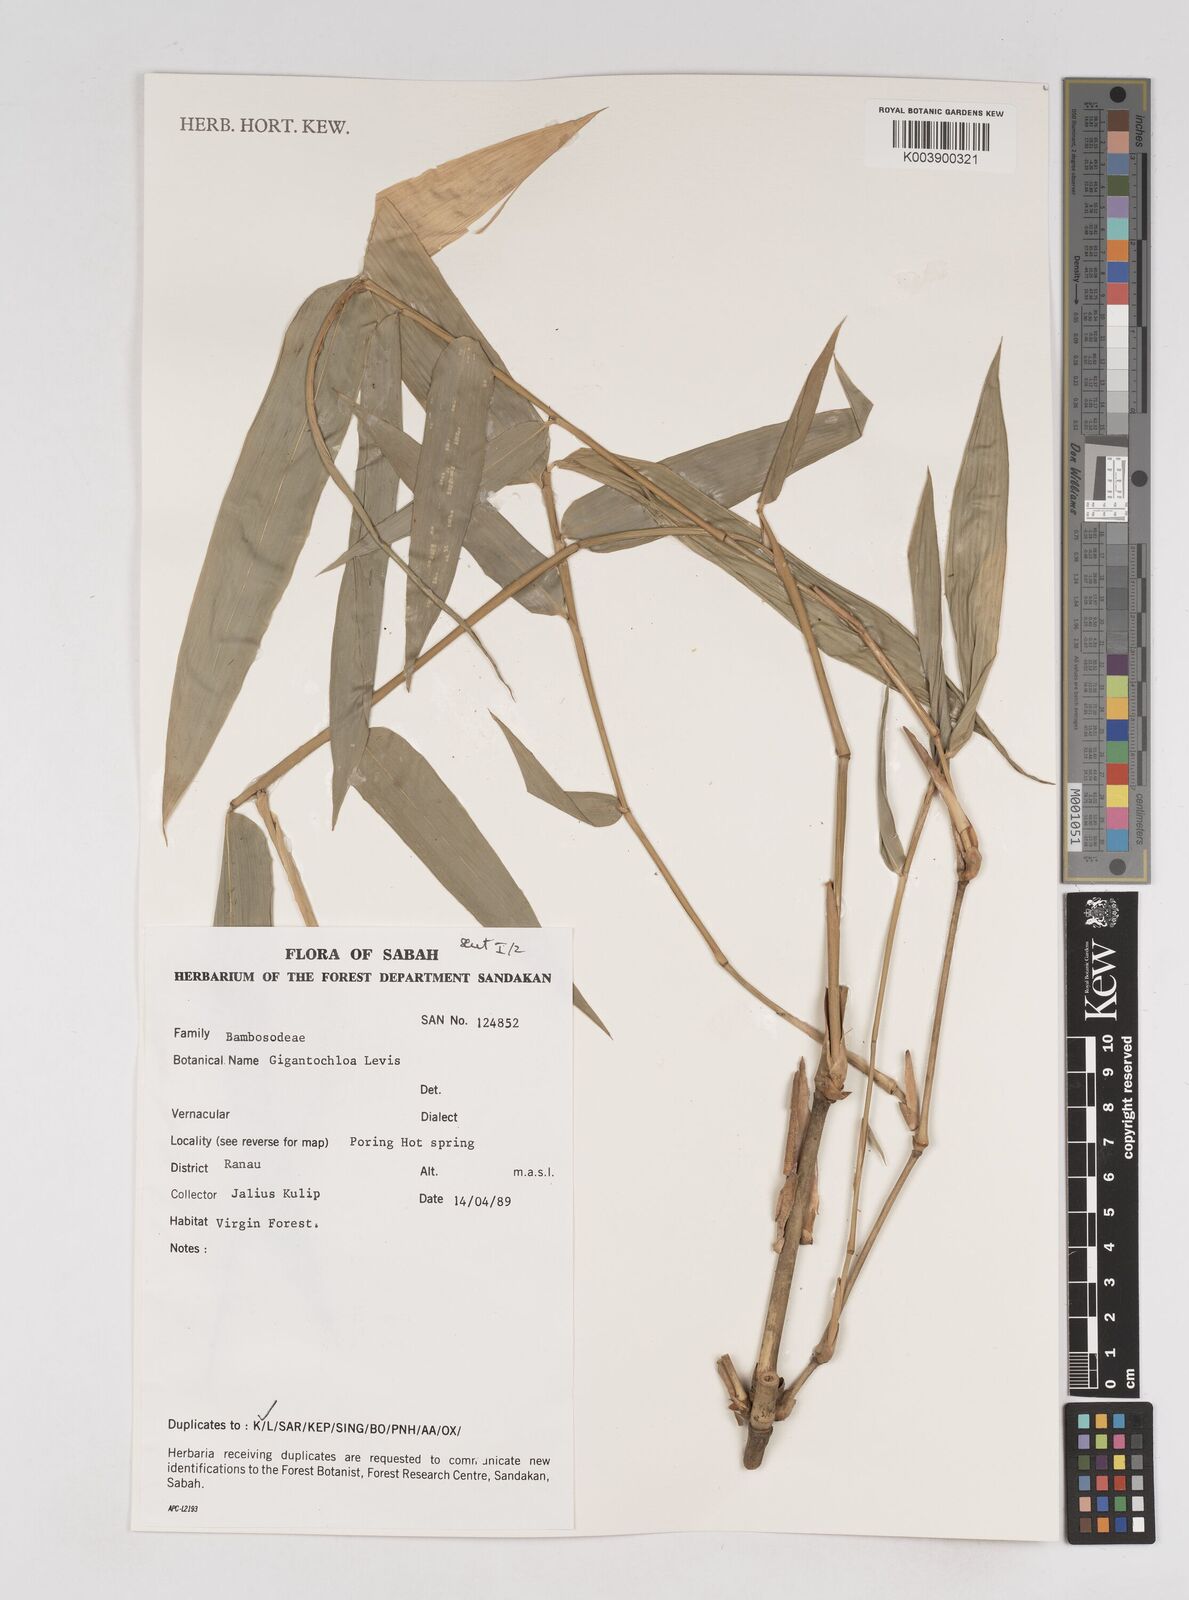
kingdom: Plantae
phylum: Tracheophyta
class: Liliopsida
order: Poales
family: Poaceae
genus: Gigantochloa
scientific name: Gigantochloa levis
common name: Smooth-shoot gigantochloa
